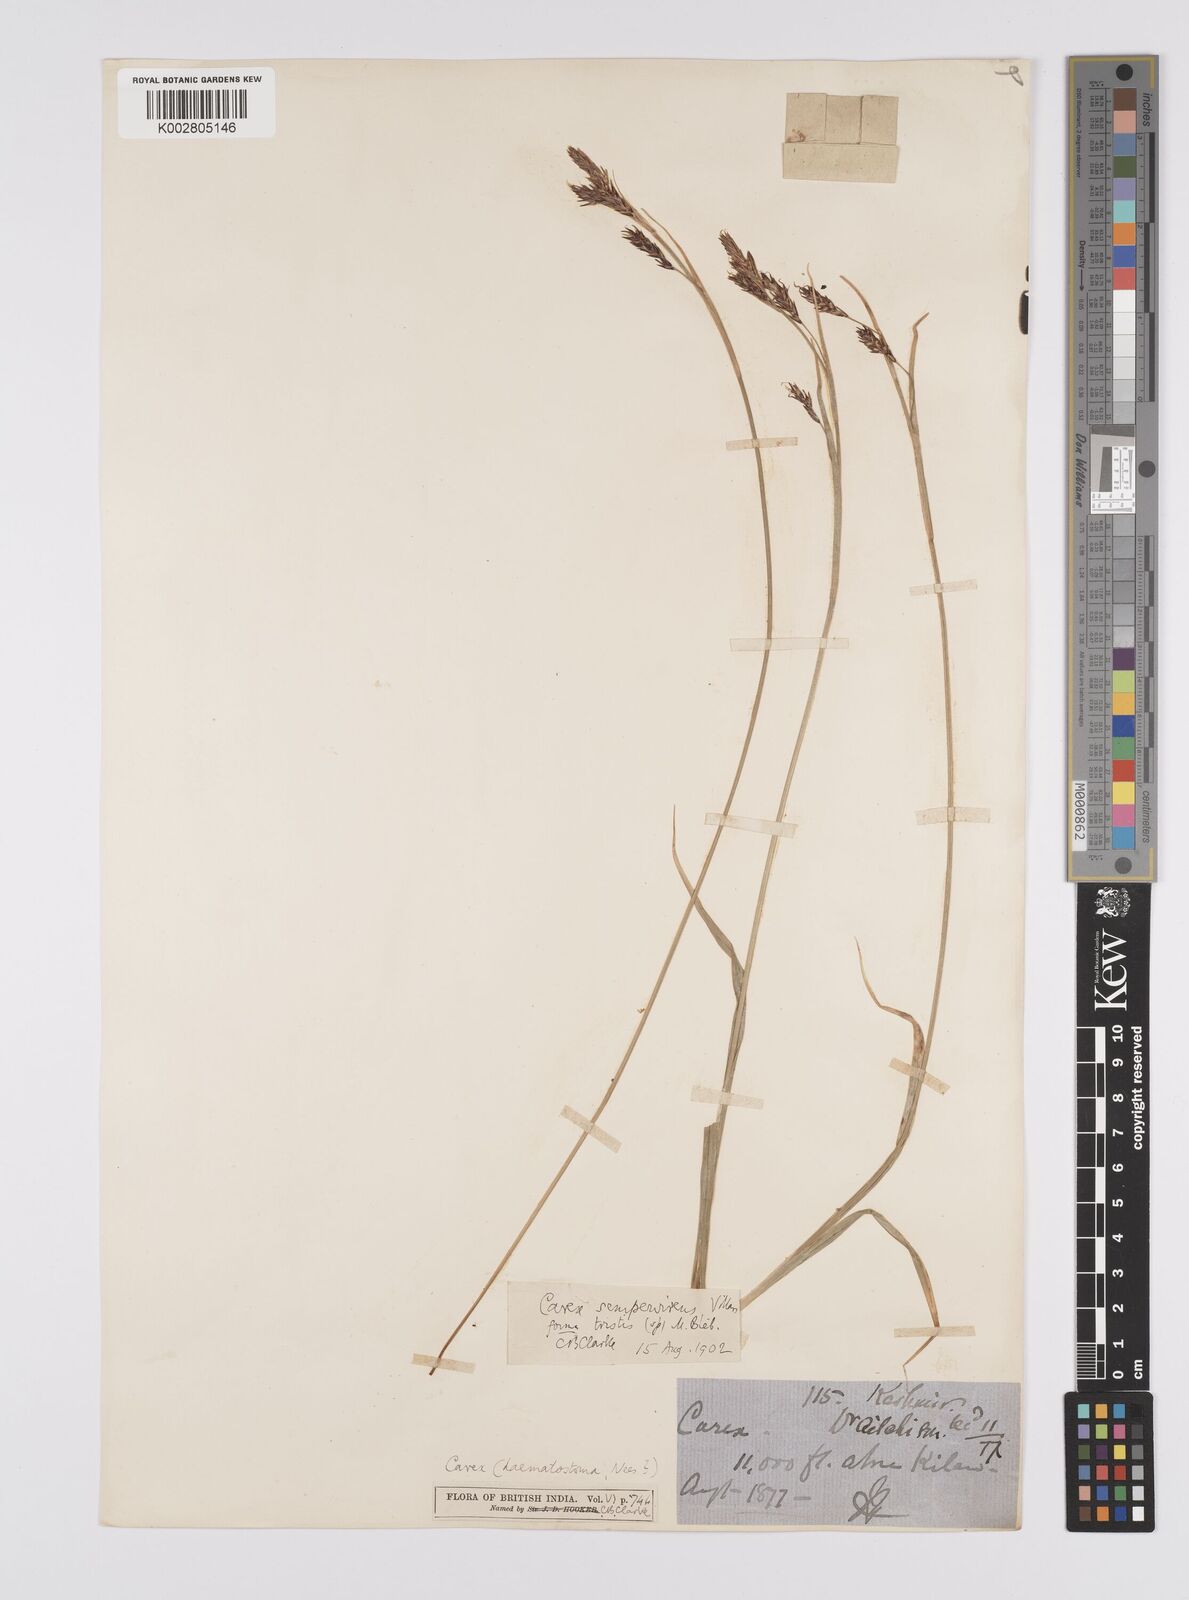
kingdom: Plantae
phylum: Tracheophyta
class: Liliopsida
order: Poales
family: Cyperaceae
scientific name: Cyperaceae
